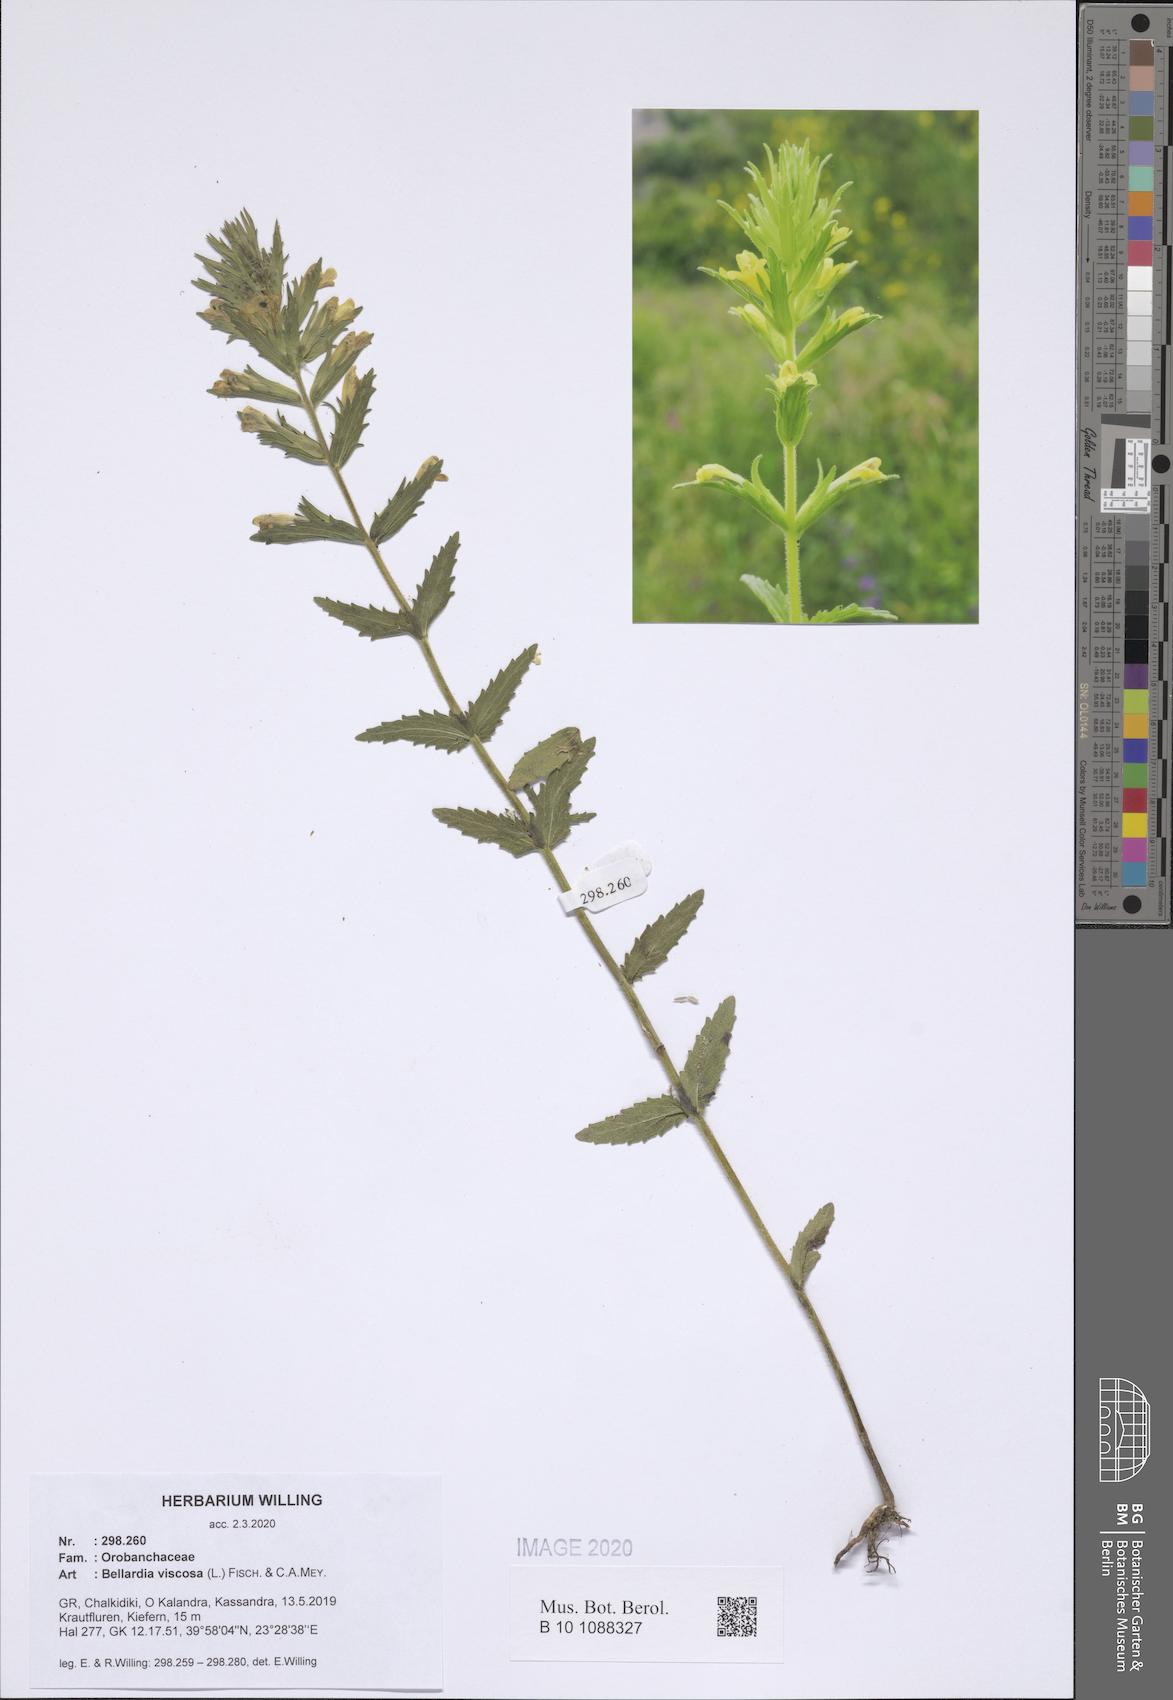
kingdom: Plantae
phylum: Tracheophyta
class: Magnoliopsida
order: Lamiales
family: Orobanchaceae
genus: Bellardia
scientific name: Bellardia viscosa
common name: Sticky parentucellia
